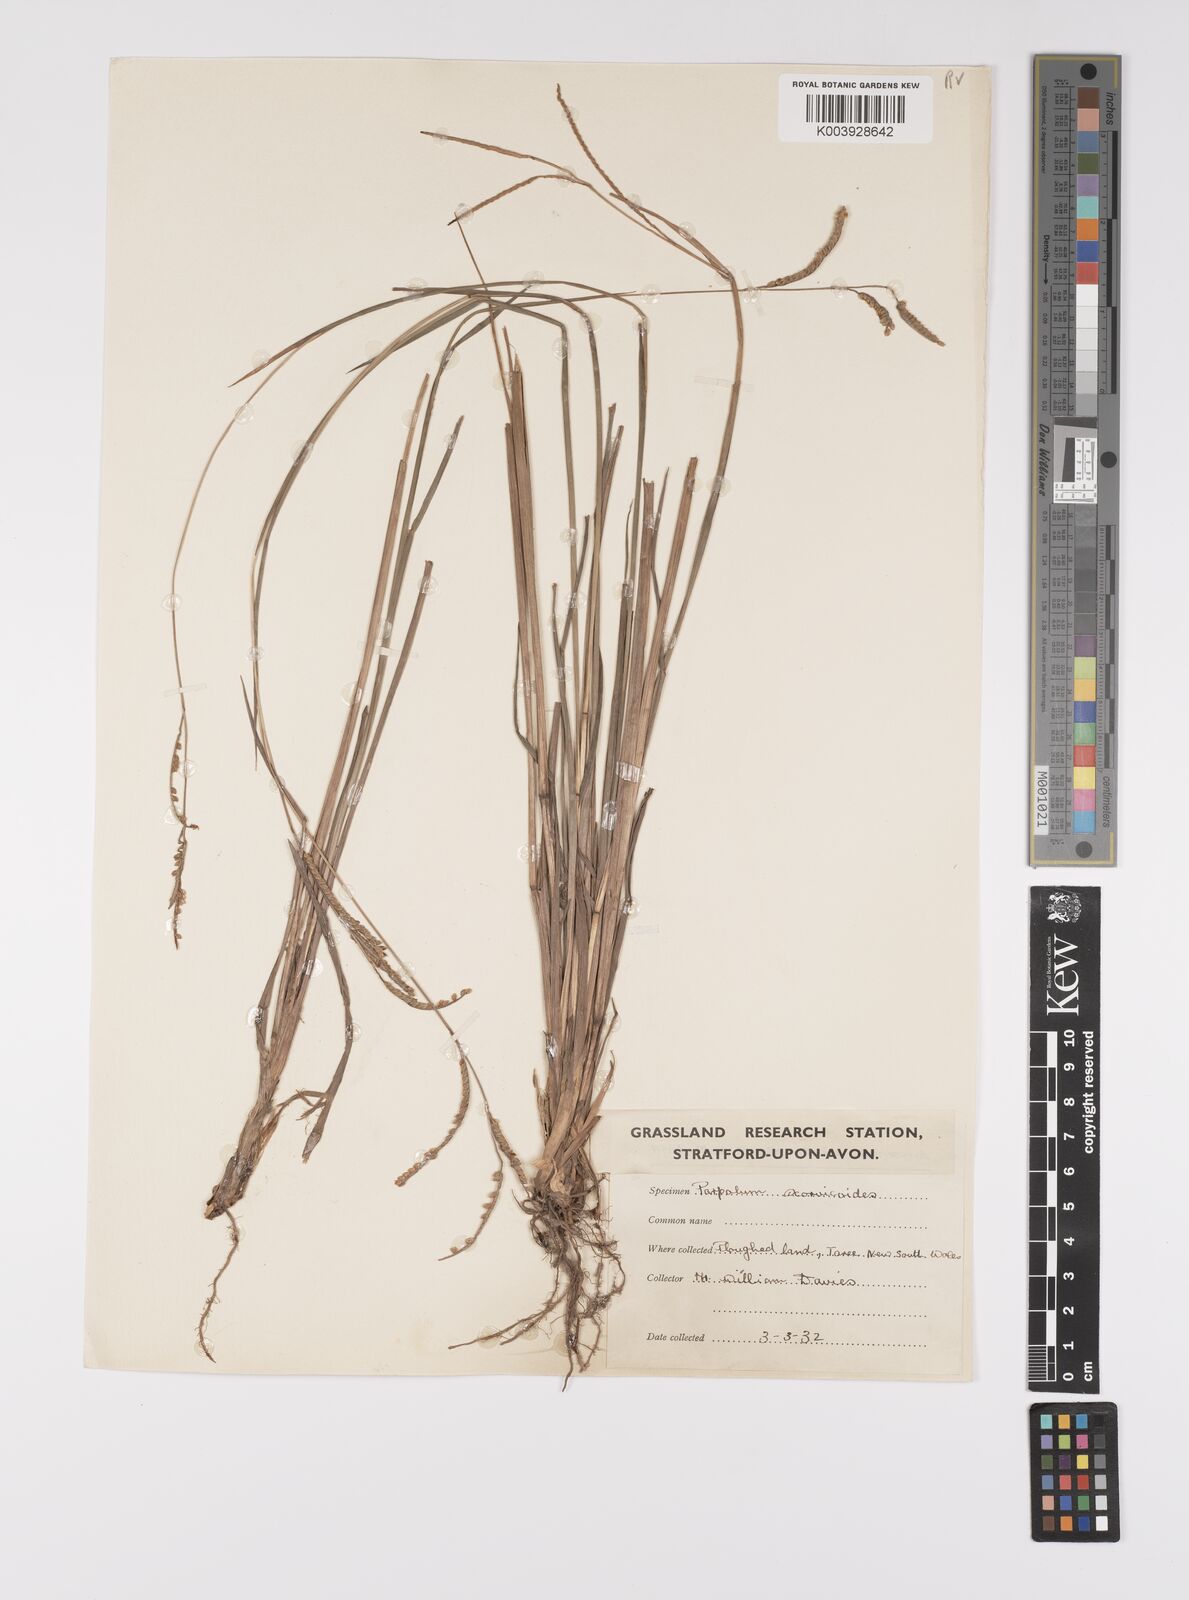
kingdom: Plantae
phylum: Tracheophyta
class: Liliopsida
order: Poales
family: Poaceae
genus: Paspalum
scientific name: Paspalum scrobiculatum
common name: Kodo millet
